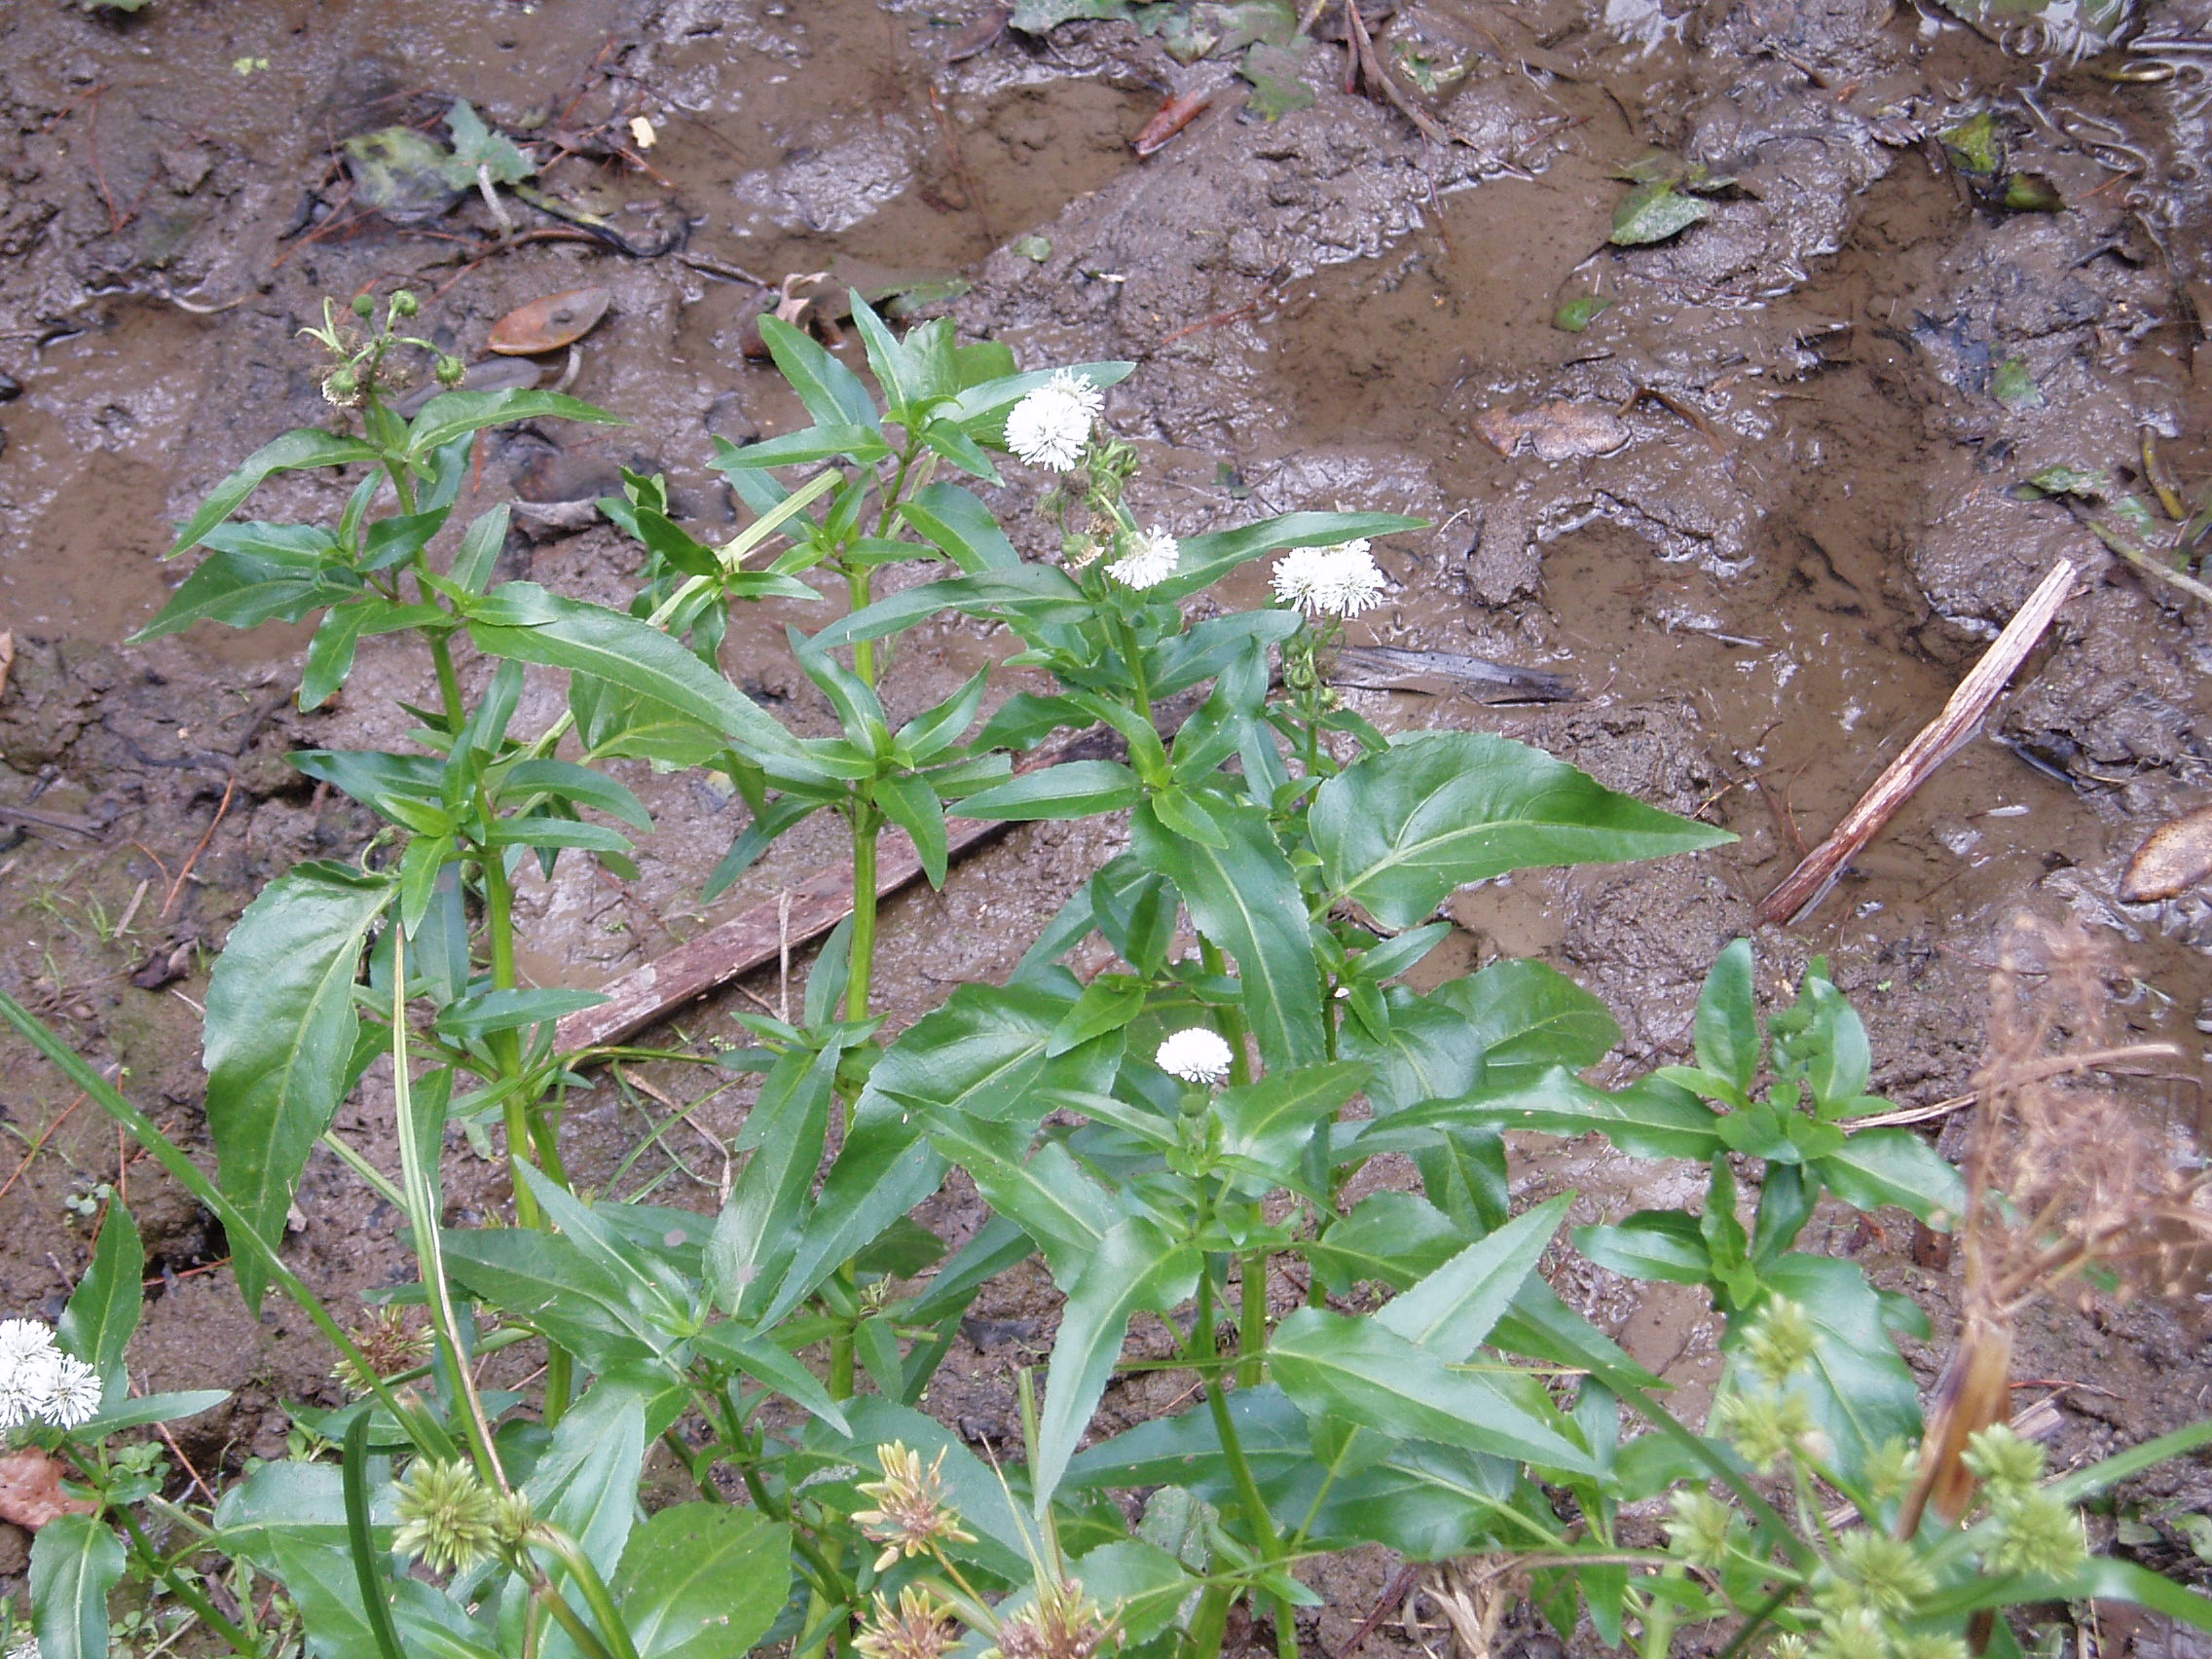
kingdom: Plantae
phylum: Tracheophyta
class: Magnoliopsida
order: Asterales
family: Asteraceae
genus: Gymnocoronis
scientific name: Gymnocoronis spilanthoides
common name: Senegal teaplant
